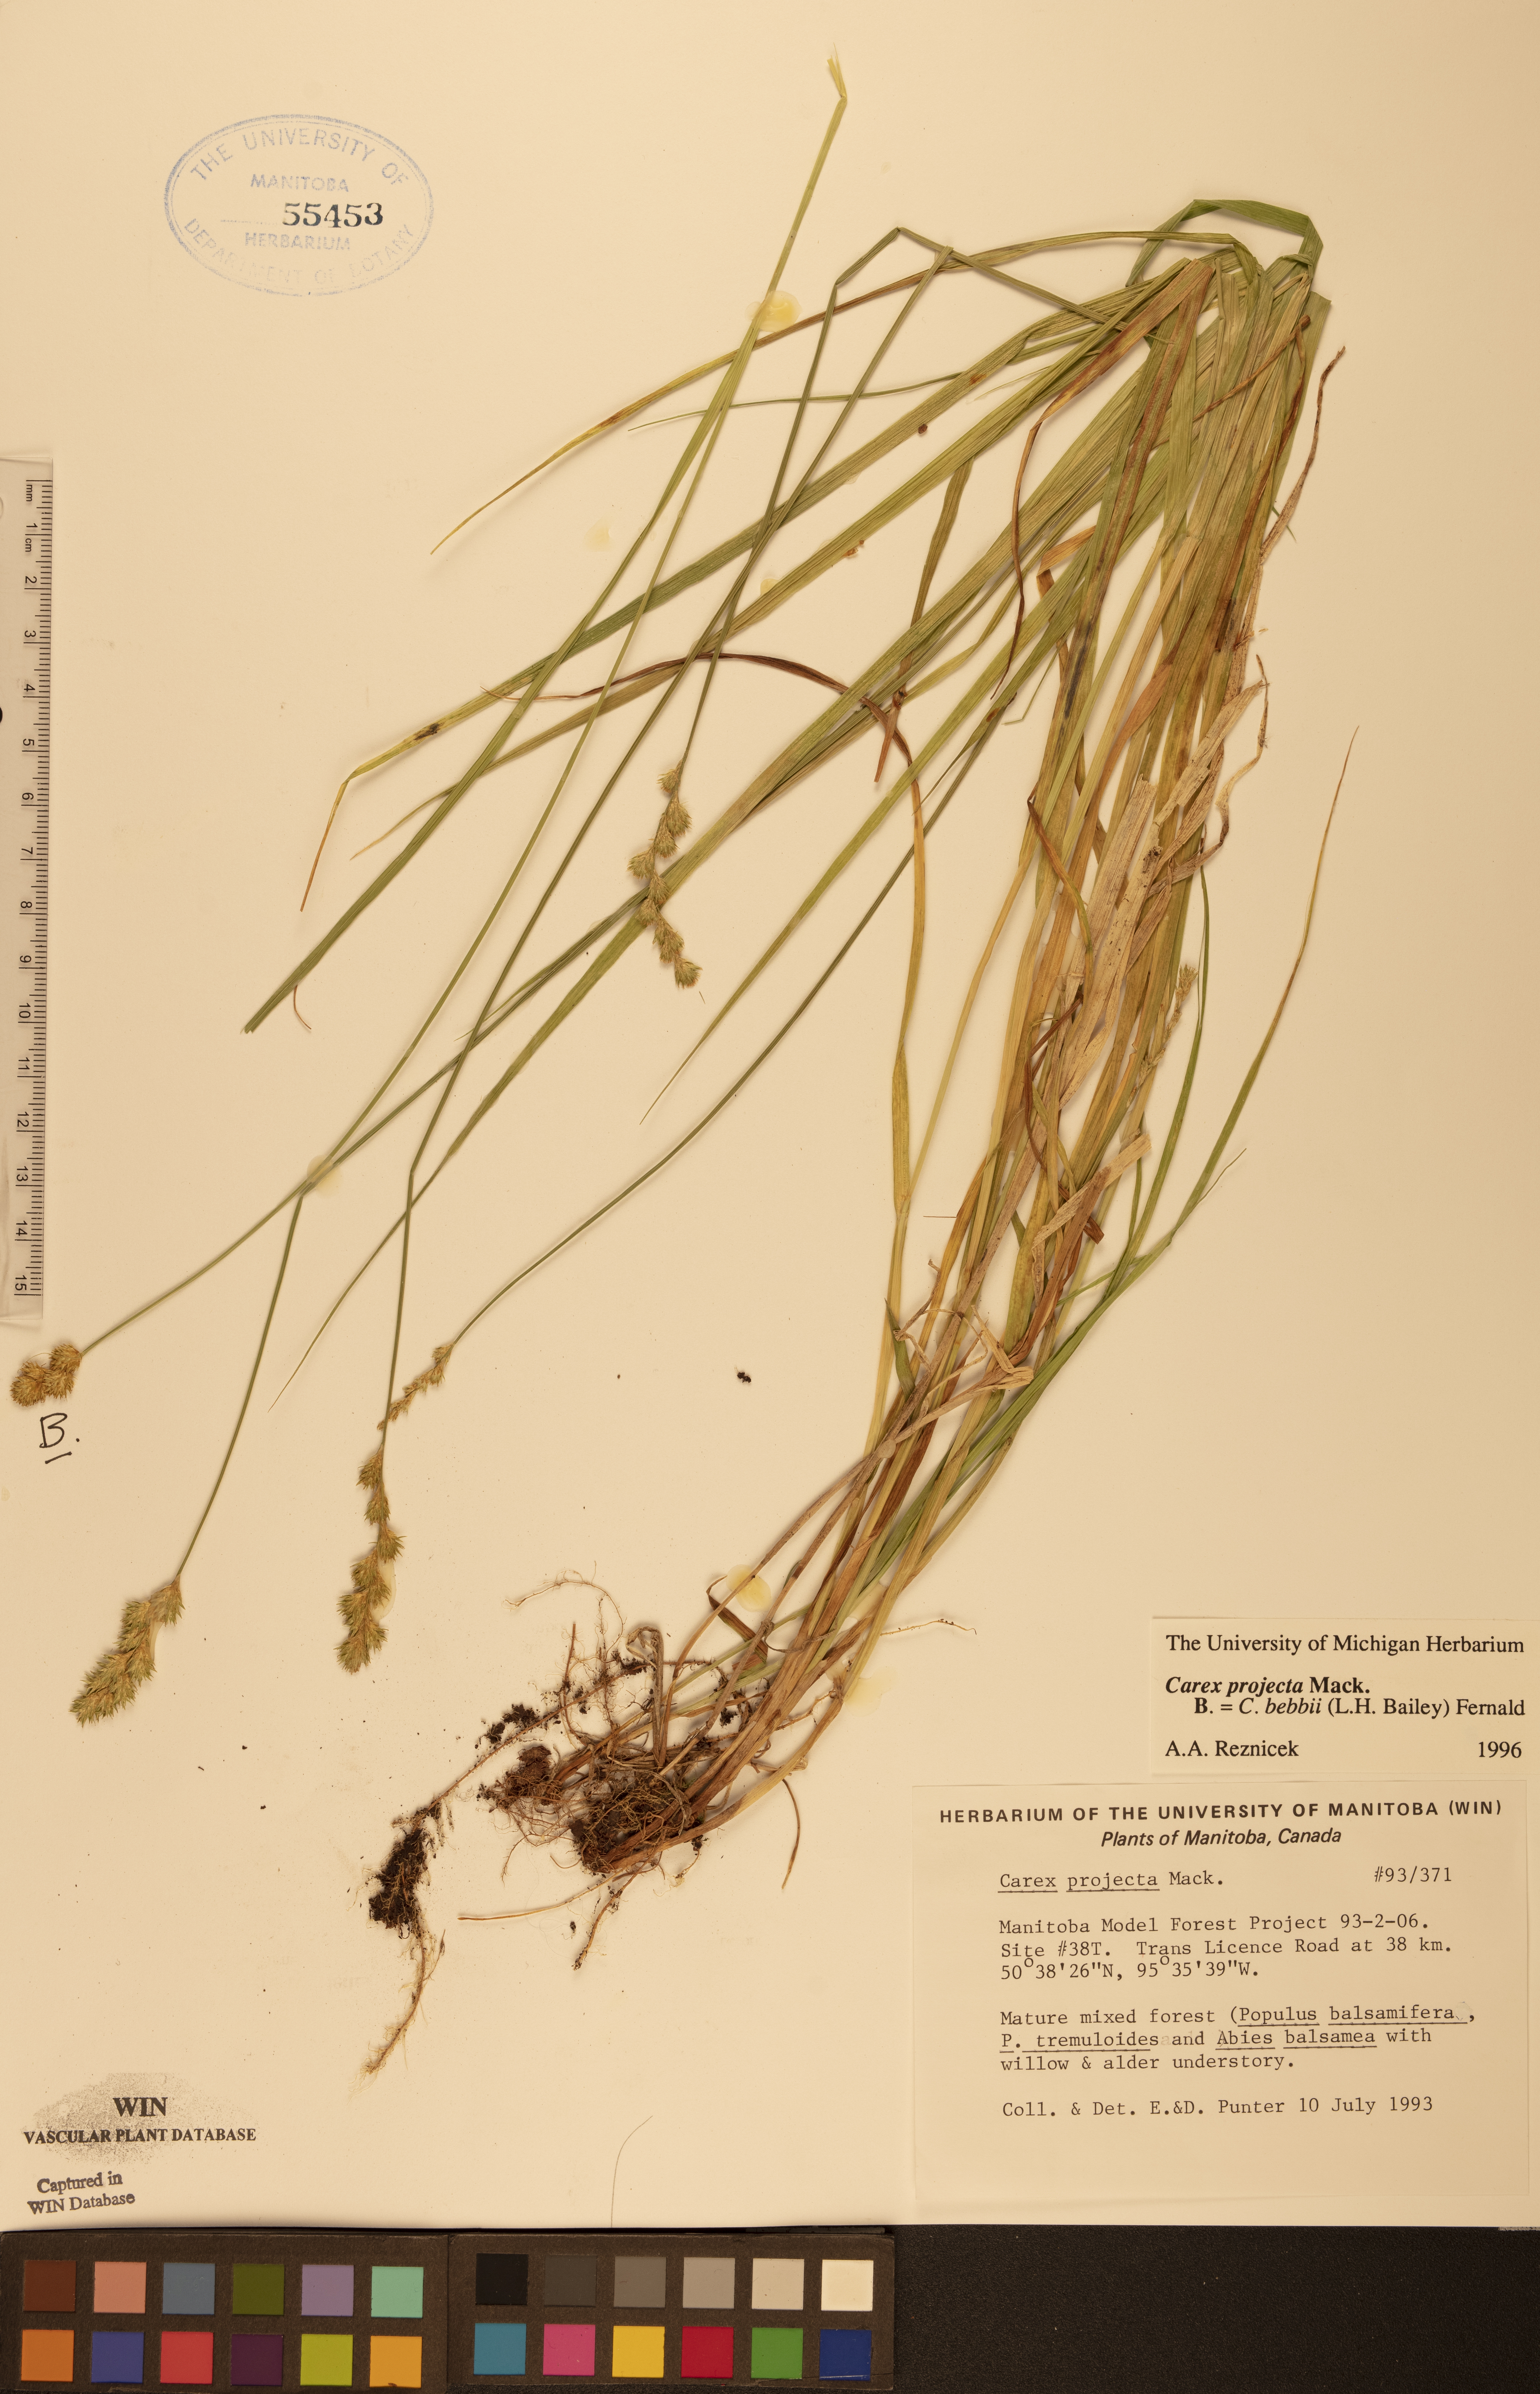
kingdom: Plantae
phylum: Tracheophyta
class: Liliopsida
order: Poales
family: Cyperaceae
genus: Carex
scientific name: Carex projecta
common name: Loose-headed oval sedge
